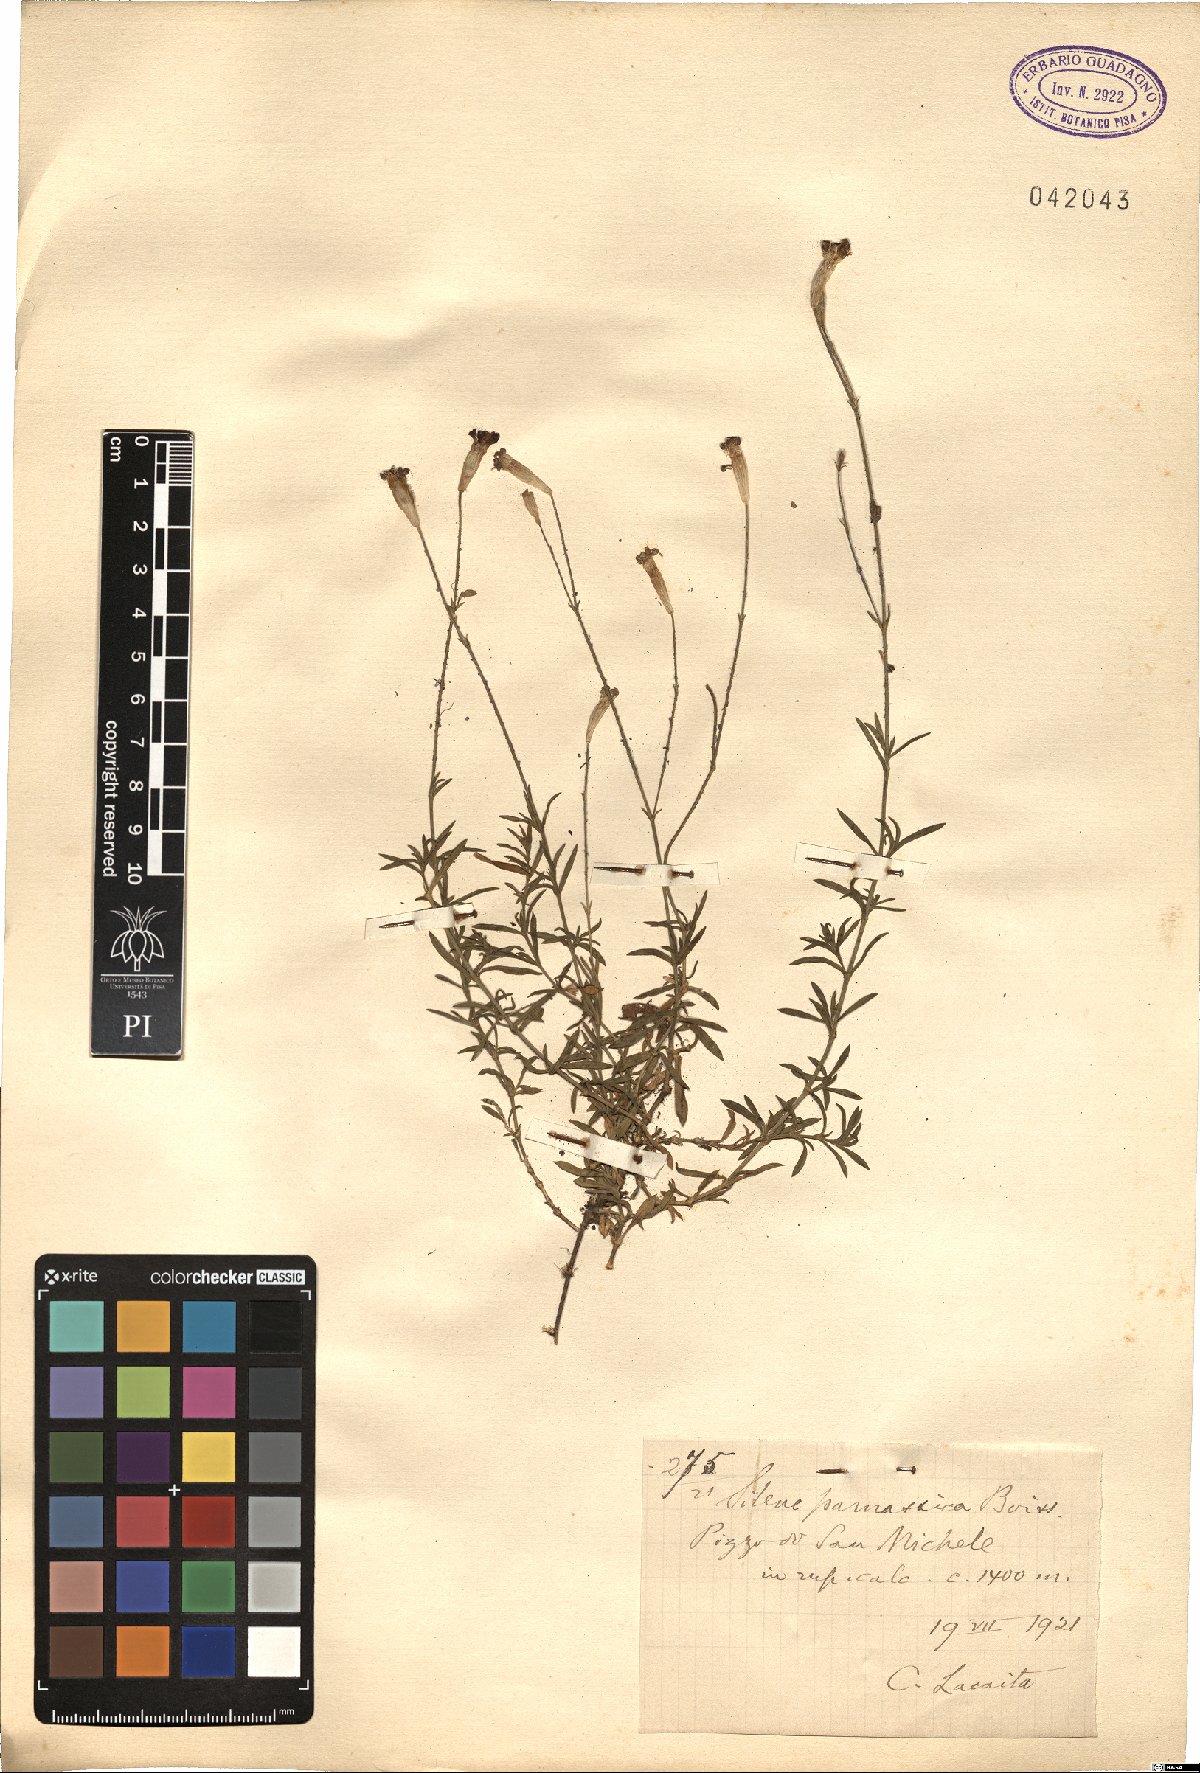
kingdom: Plantae
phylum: Tracheophyta
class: Magnoliopsida
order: Caryophyllales
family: Caryophyllaceae
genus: Silene
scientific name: Silene parnassica
